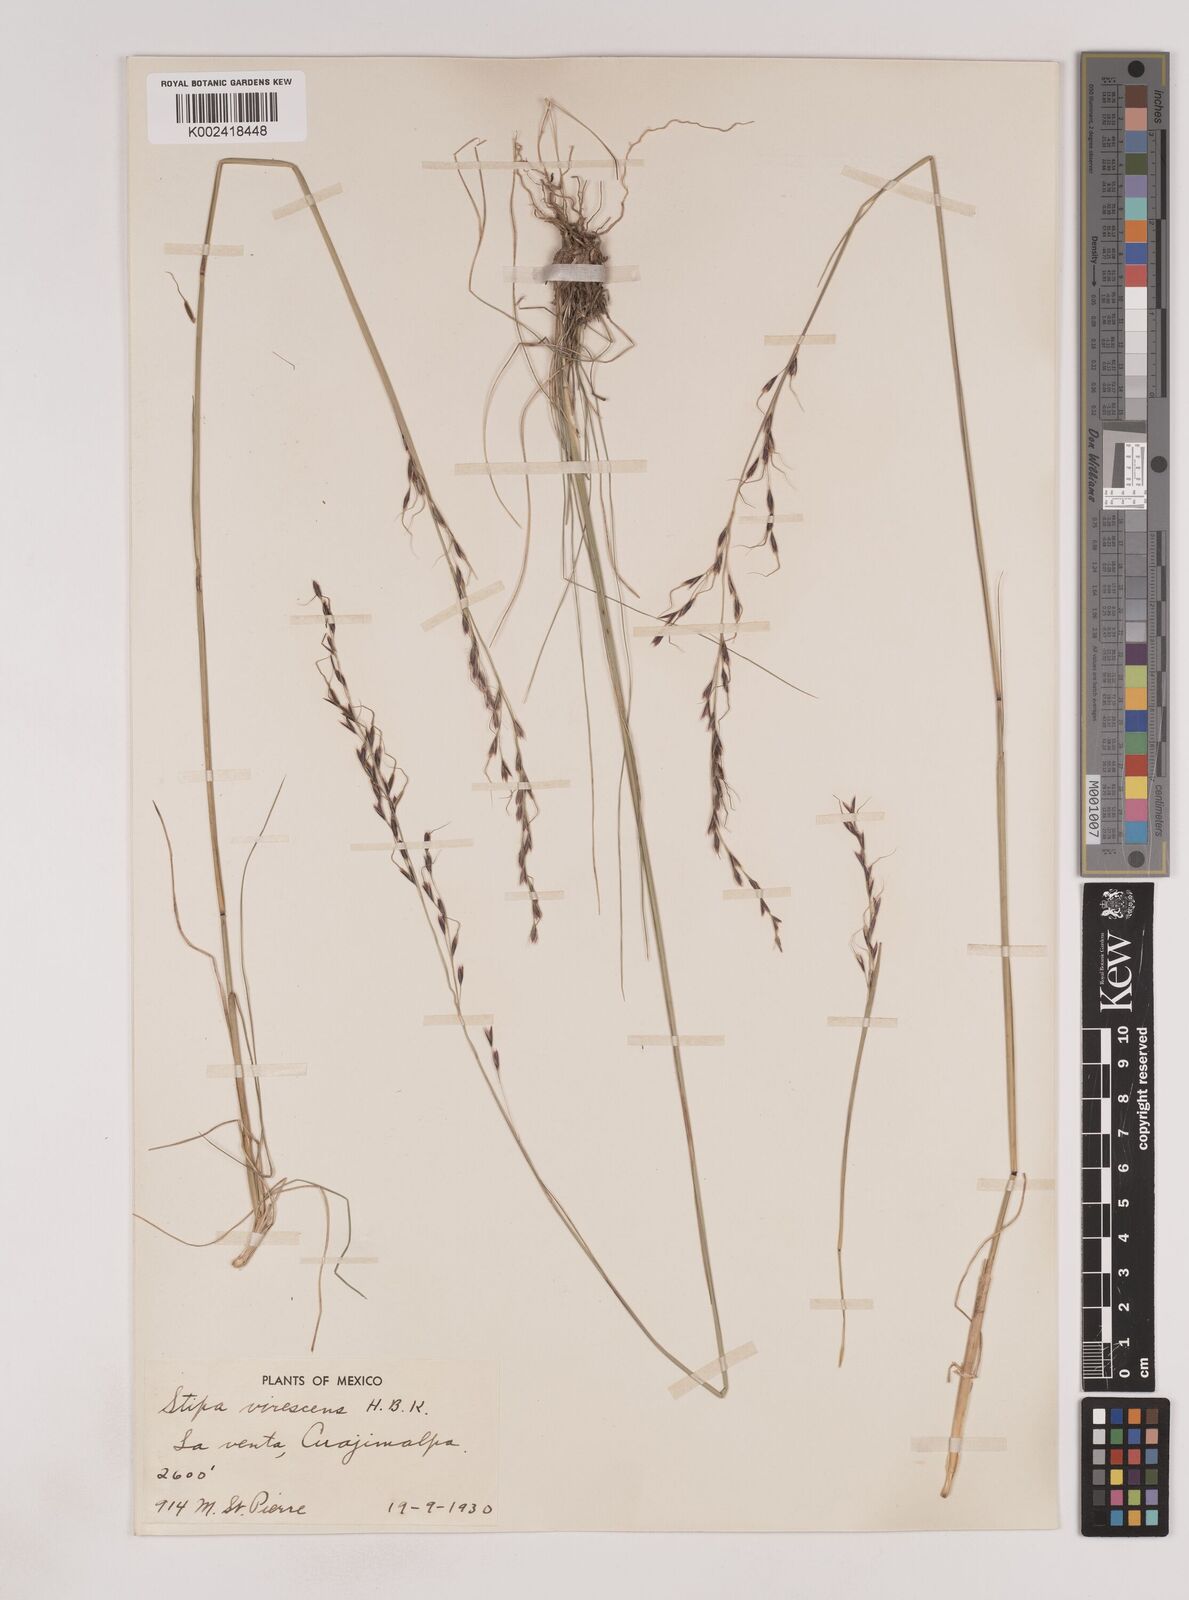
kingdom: Plantae
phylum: Tracheophyta
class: Liliopsida
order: Poales
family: Poaceae
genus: Piptochaetium
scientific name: Piptochaetium virescens
